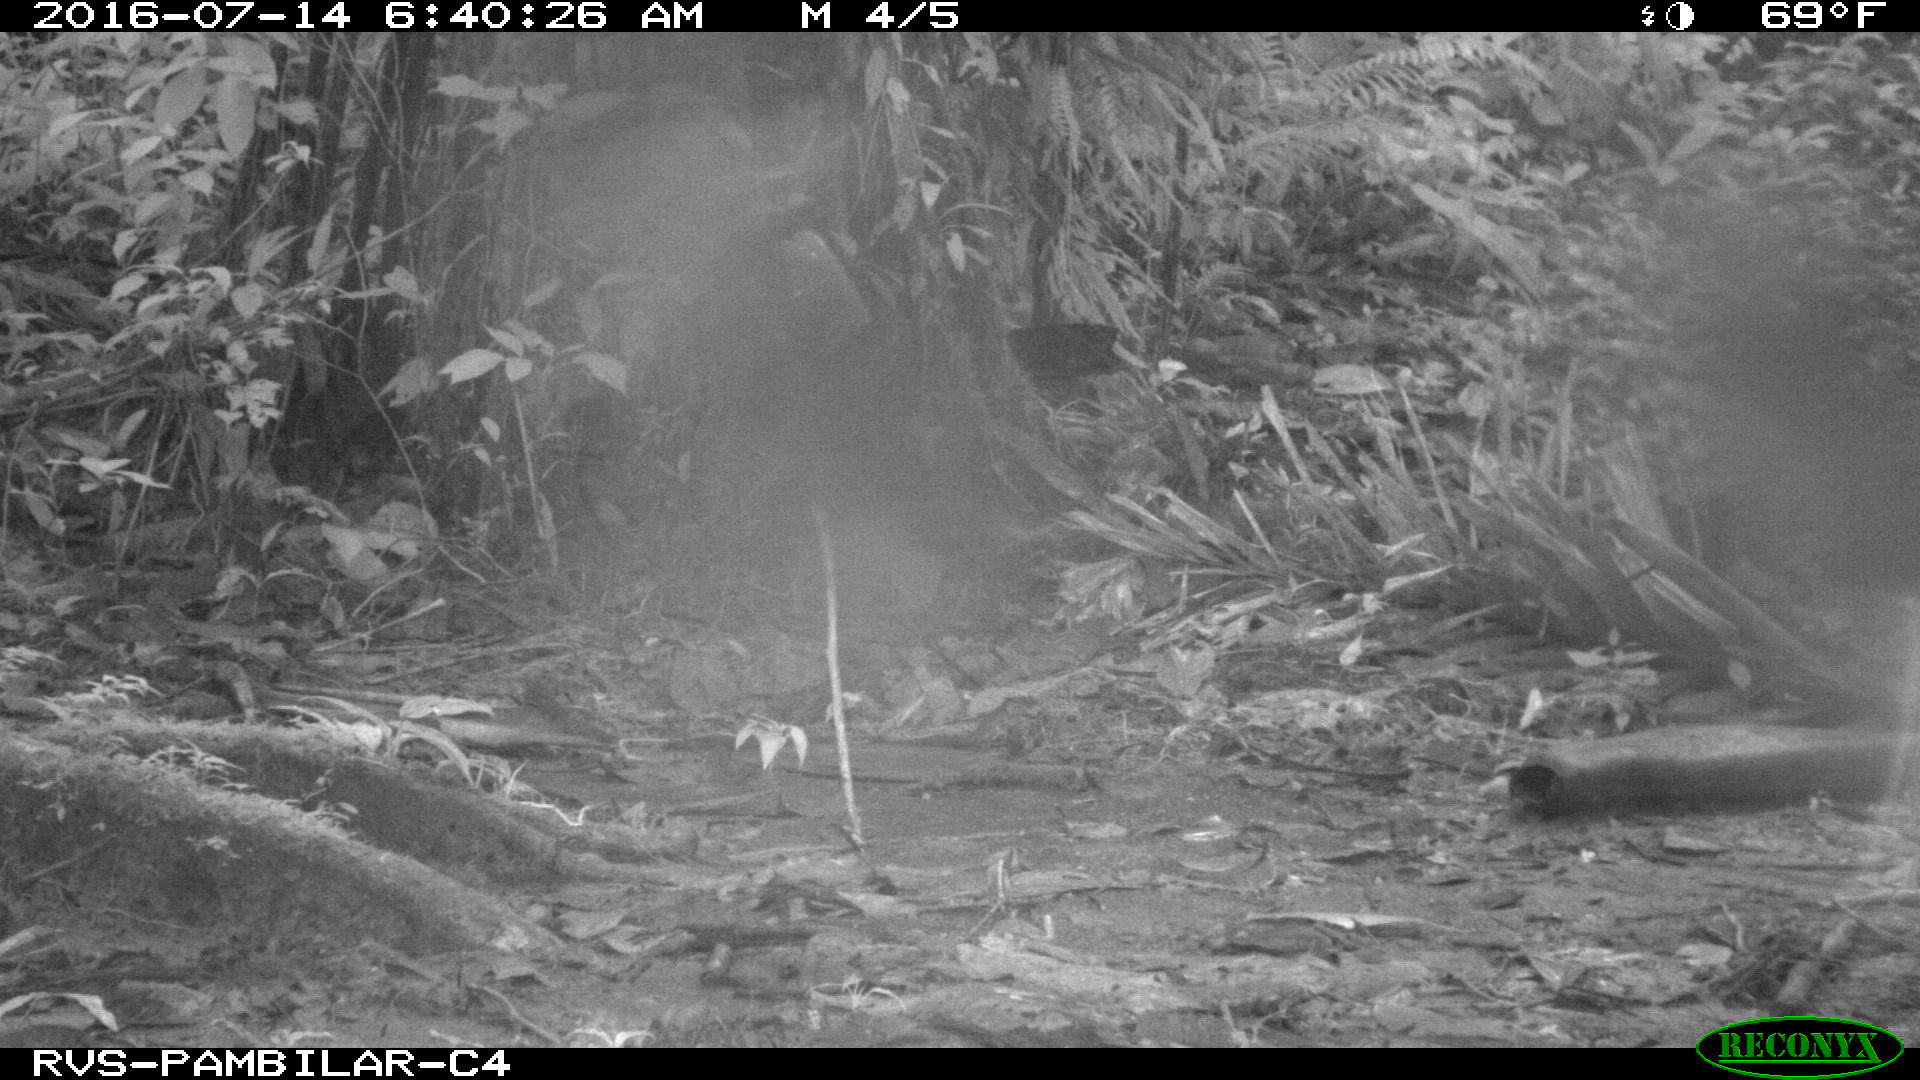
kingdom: Animalia
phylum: Chordata
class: Mammalia
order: Rodentia
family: Dasyproctidae
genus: Dasyprocta
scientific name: Dasyprocta punctata
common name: Central american agouti
